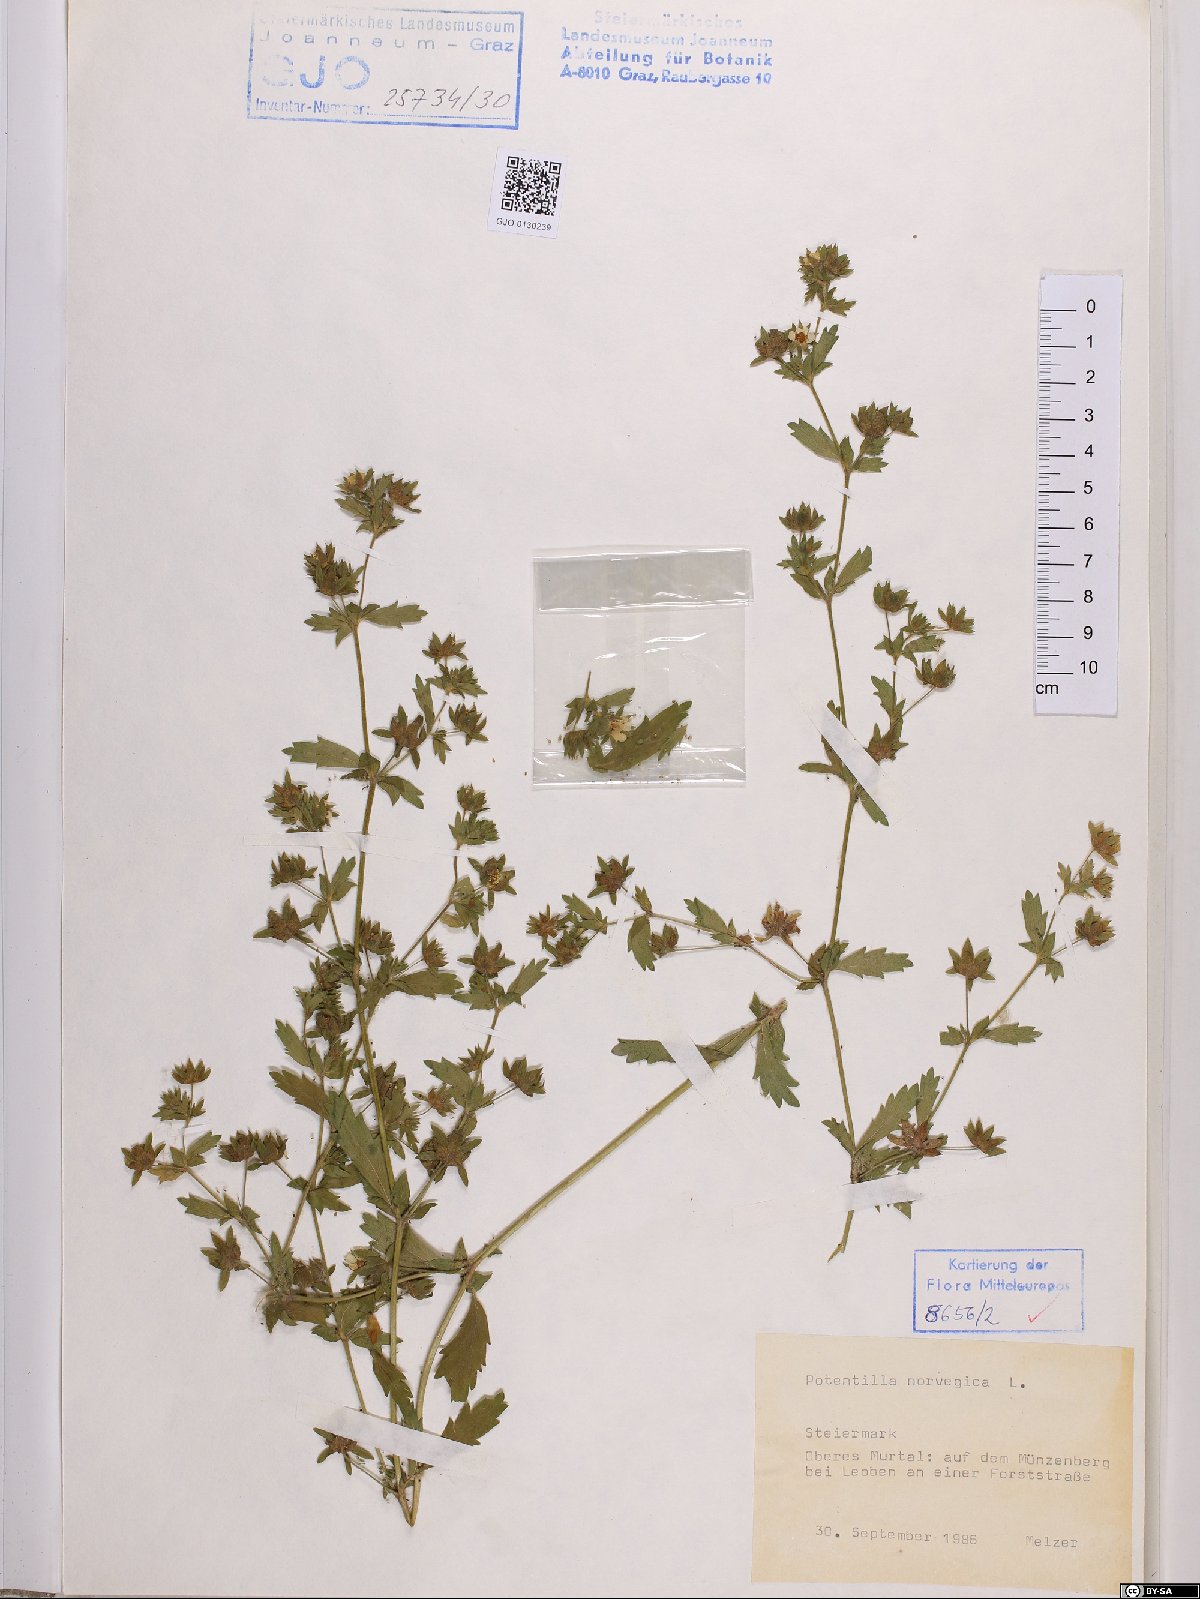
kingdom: Plantae
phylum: Tracheophyta
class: Magnoliopsida
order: Rosales
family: Rosaceae
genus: Potentilla
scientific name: Potentilla norvegica
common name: Ternate-leaved cinquefoil
